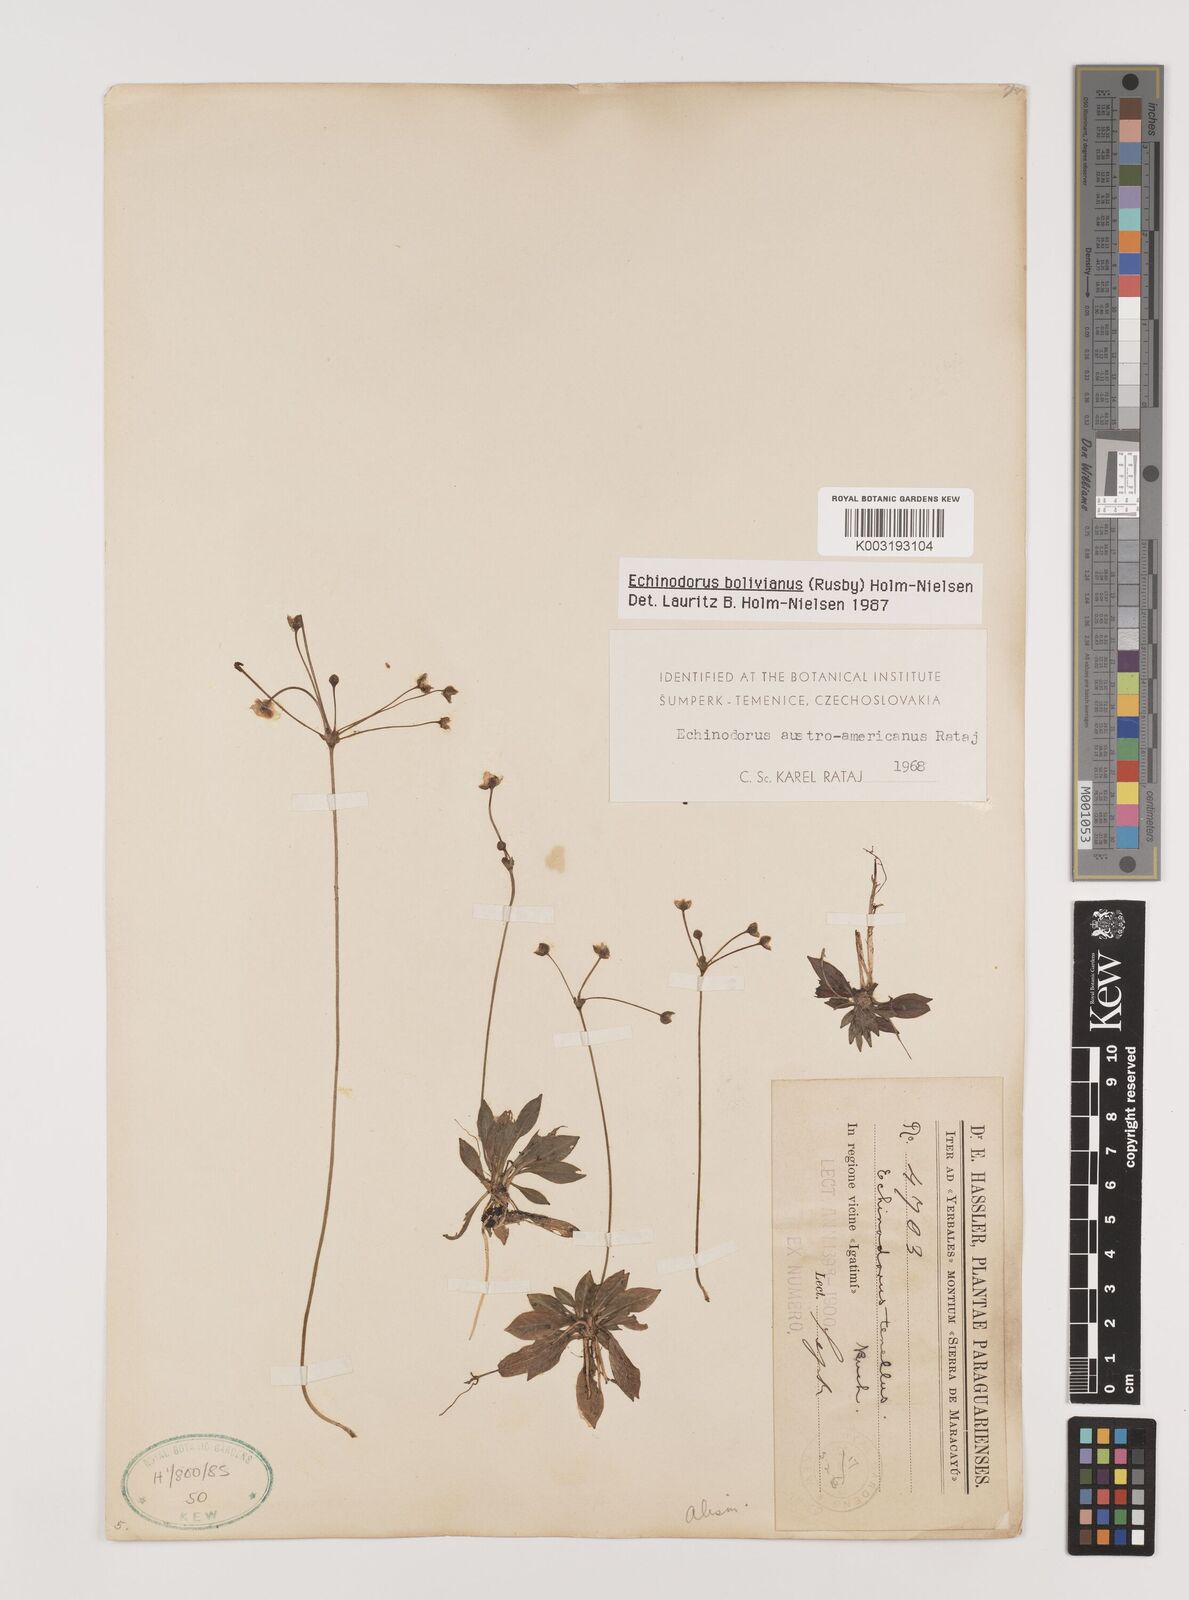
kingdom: Plantae
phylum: Tracheophyta
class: Liliopsida
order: Alismatales
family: Alismataceae
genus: Helanthium
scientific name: Helanthium bolivianum
